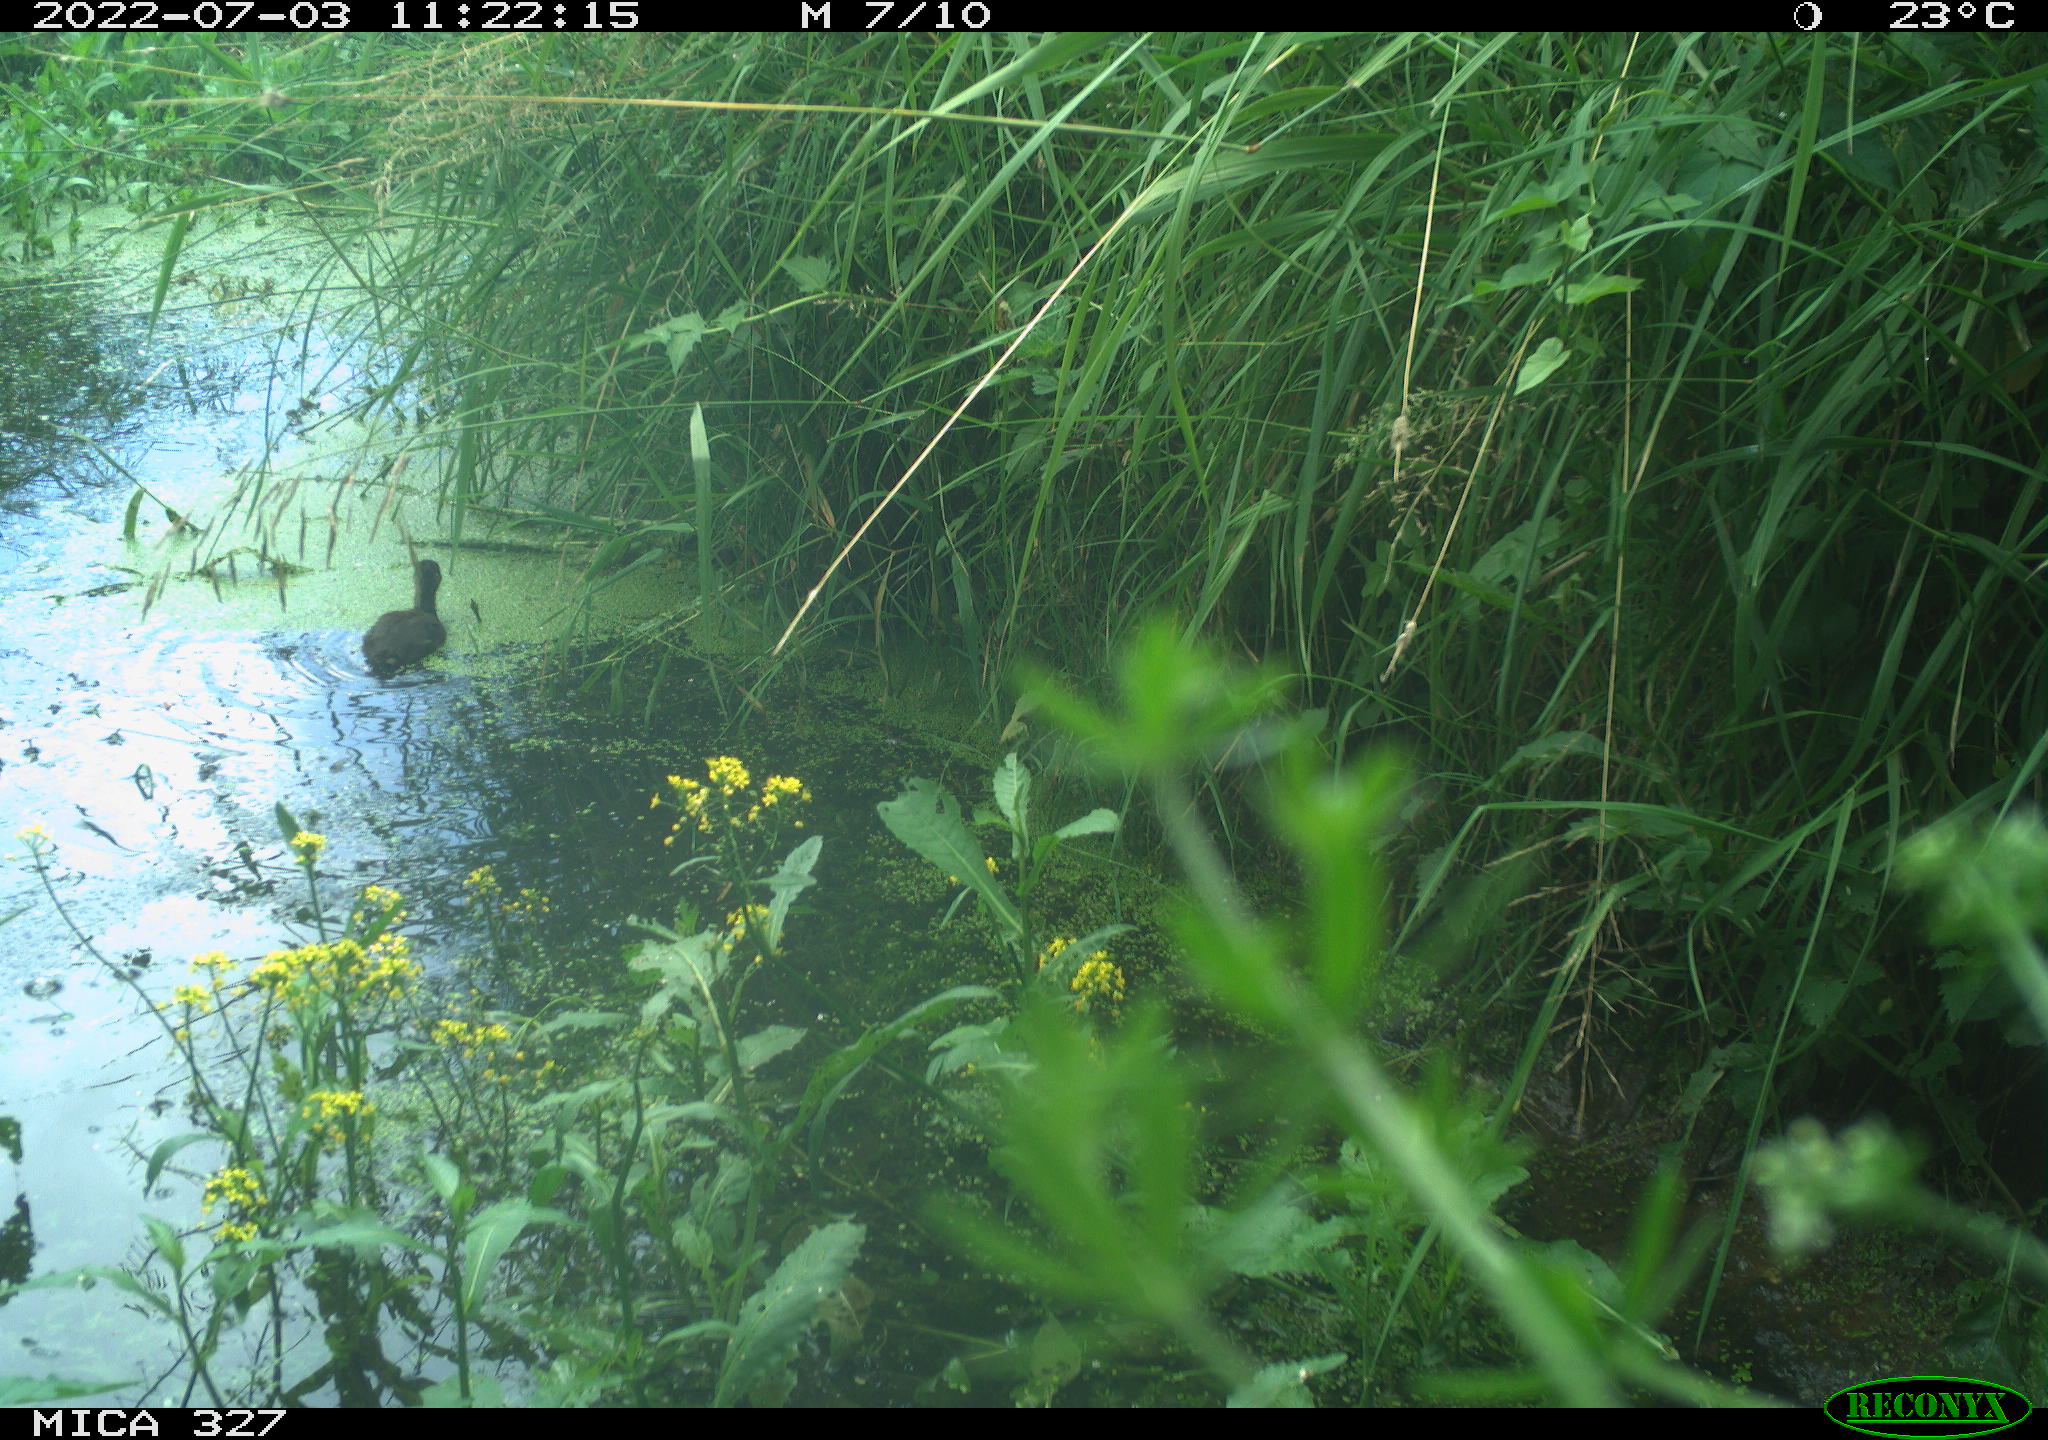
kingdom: Animalia
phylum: Chordata
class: Aves
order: Gruiformes
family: Rallidae
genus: Gallinula
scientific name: Gallinula chloropus
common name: Common moorhen
